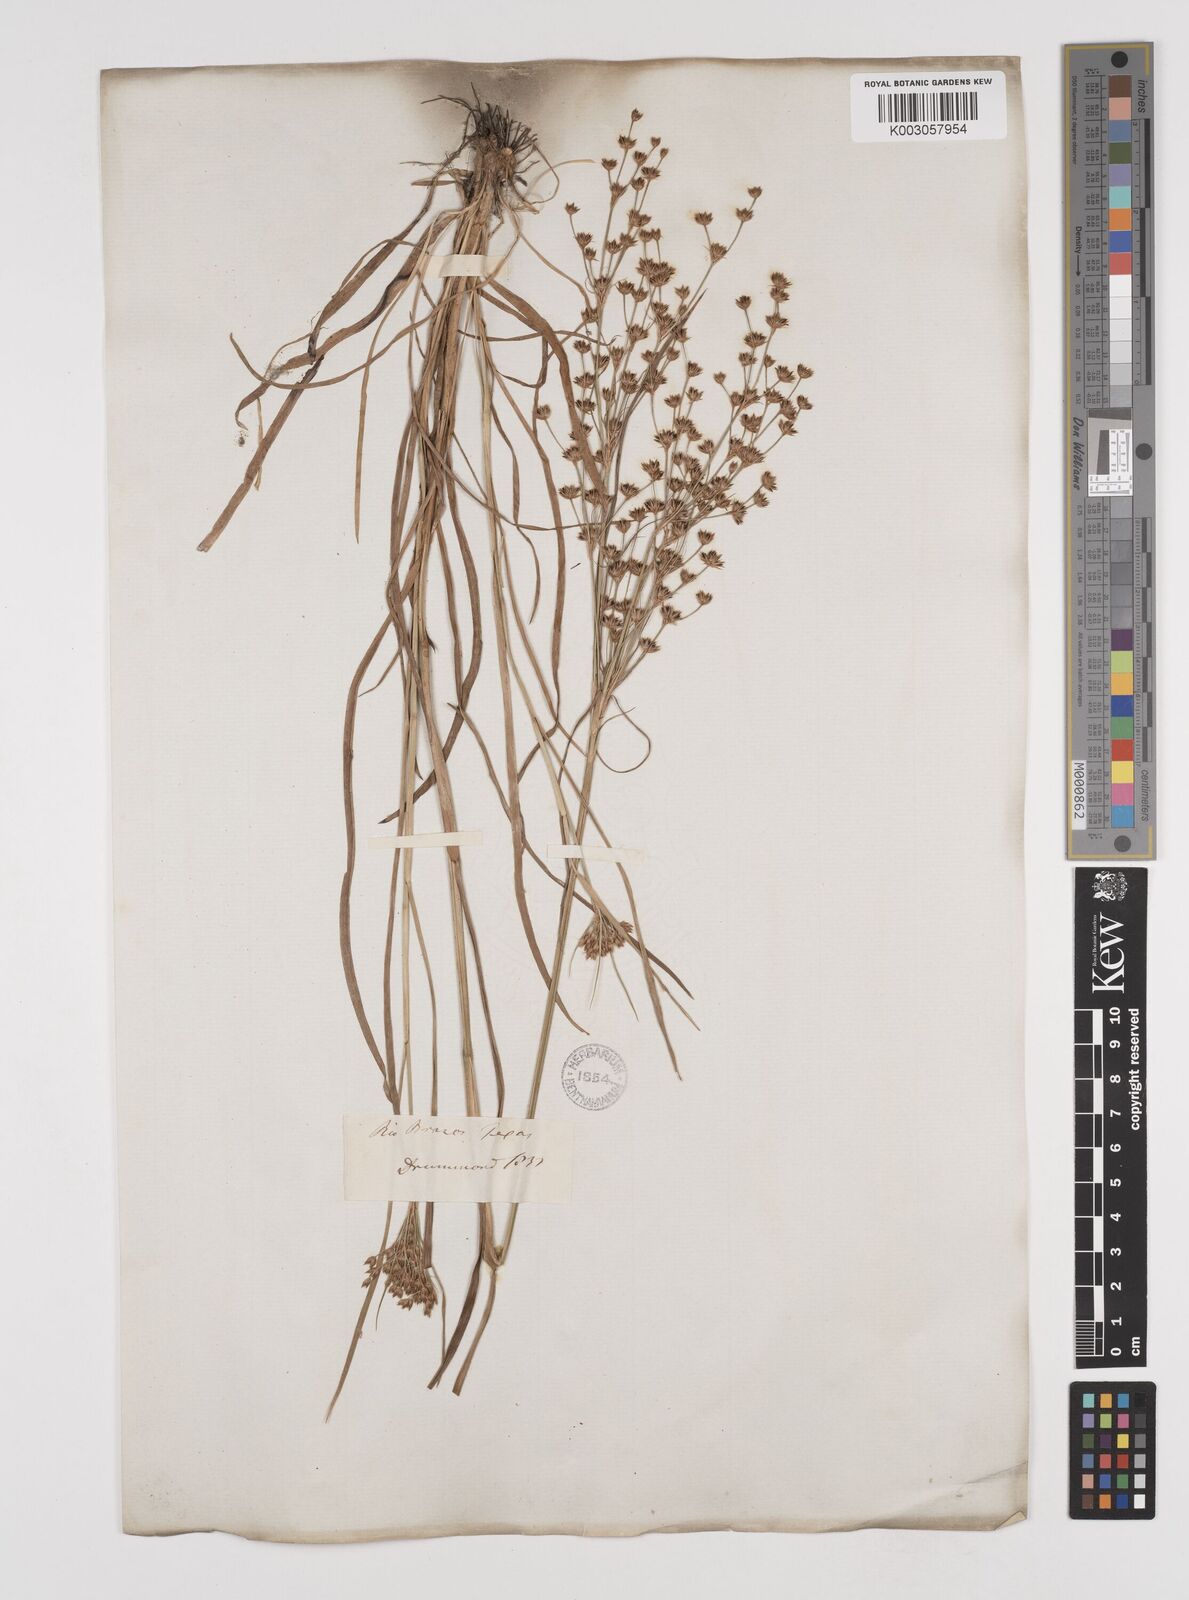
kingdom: Plantae
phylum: Tracheophyta
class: Liliopsida
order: Poales
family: Juncaceae
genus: Juncus
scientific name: Juncus marginatus
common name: Grass-leaf rush
